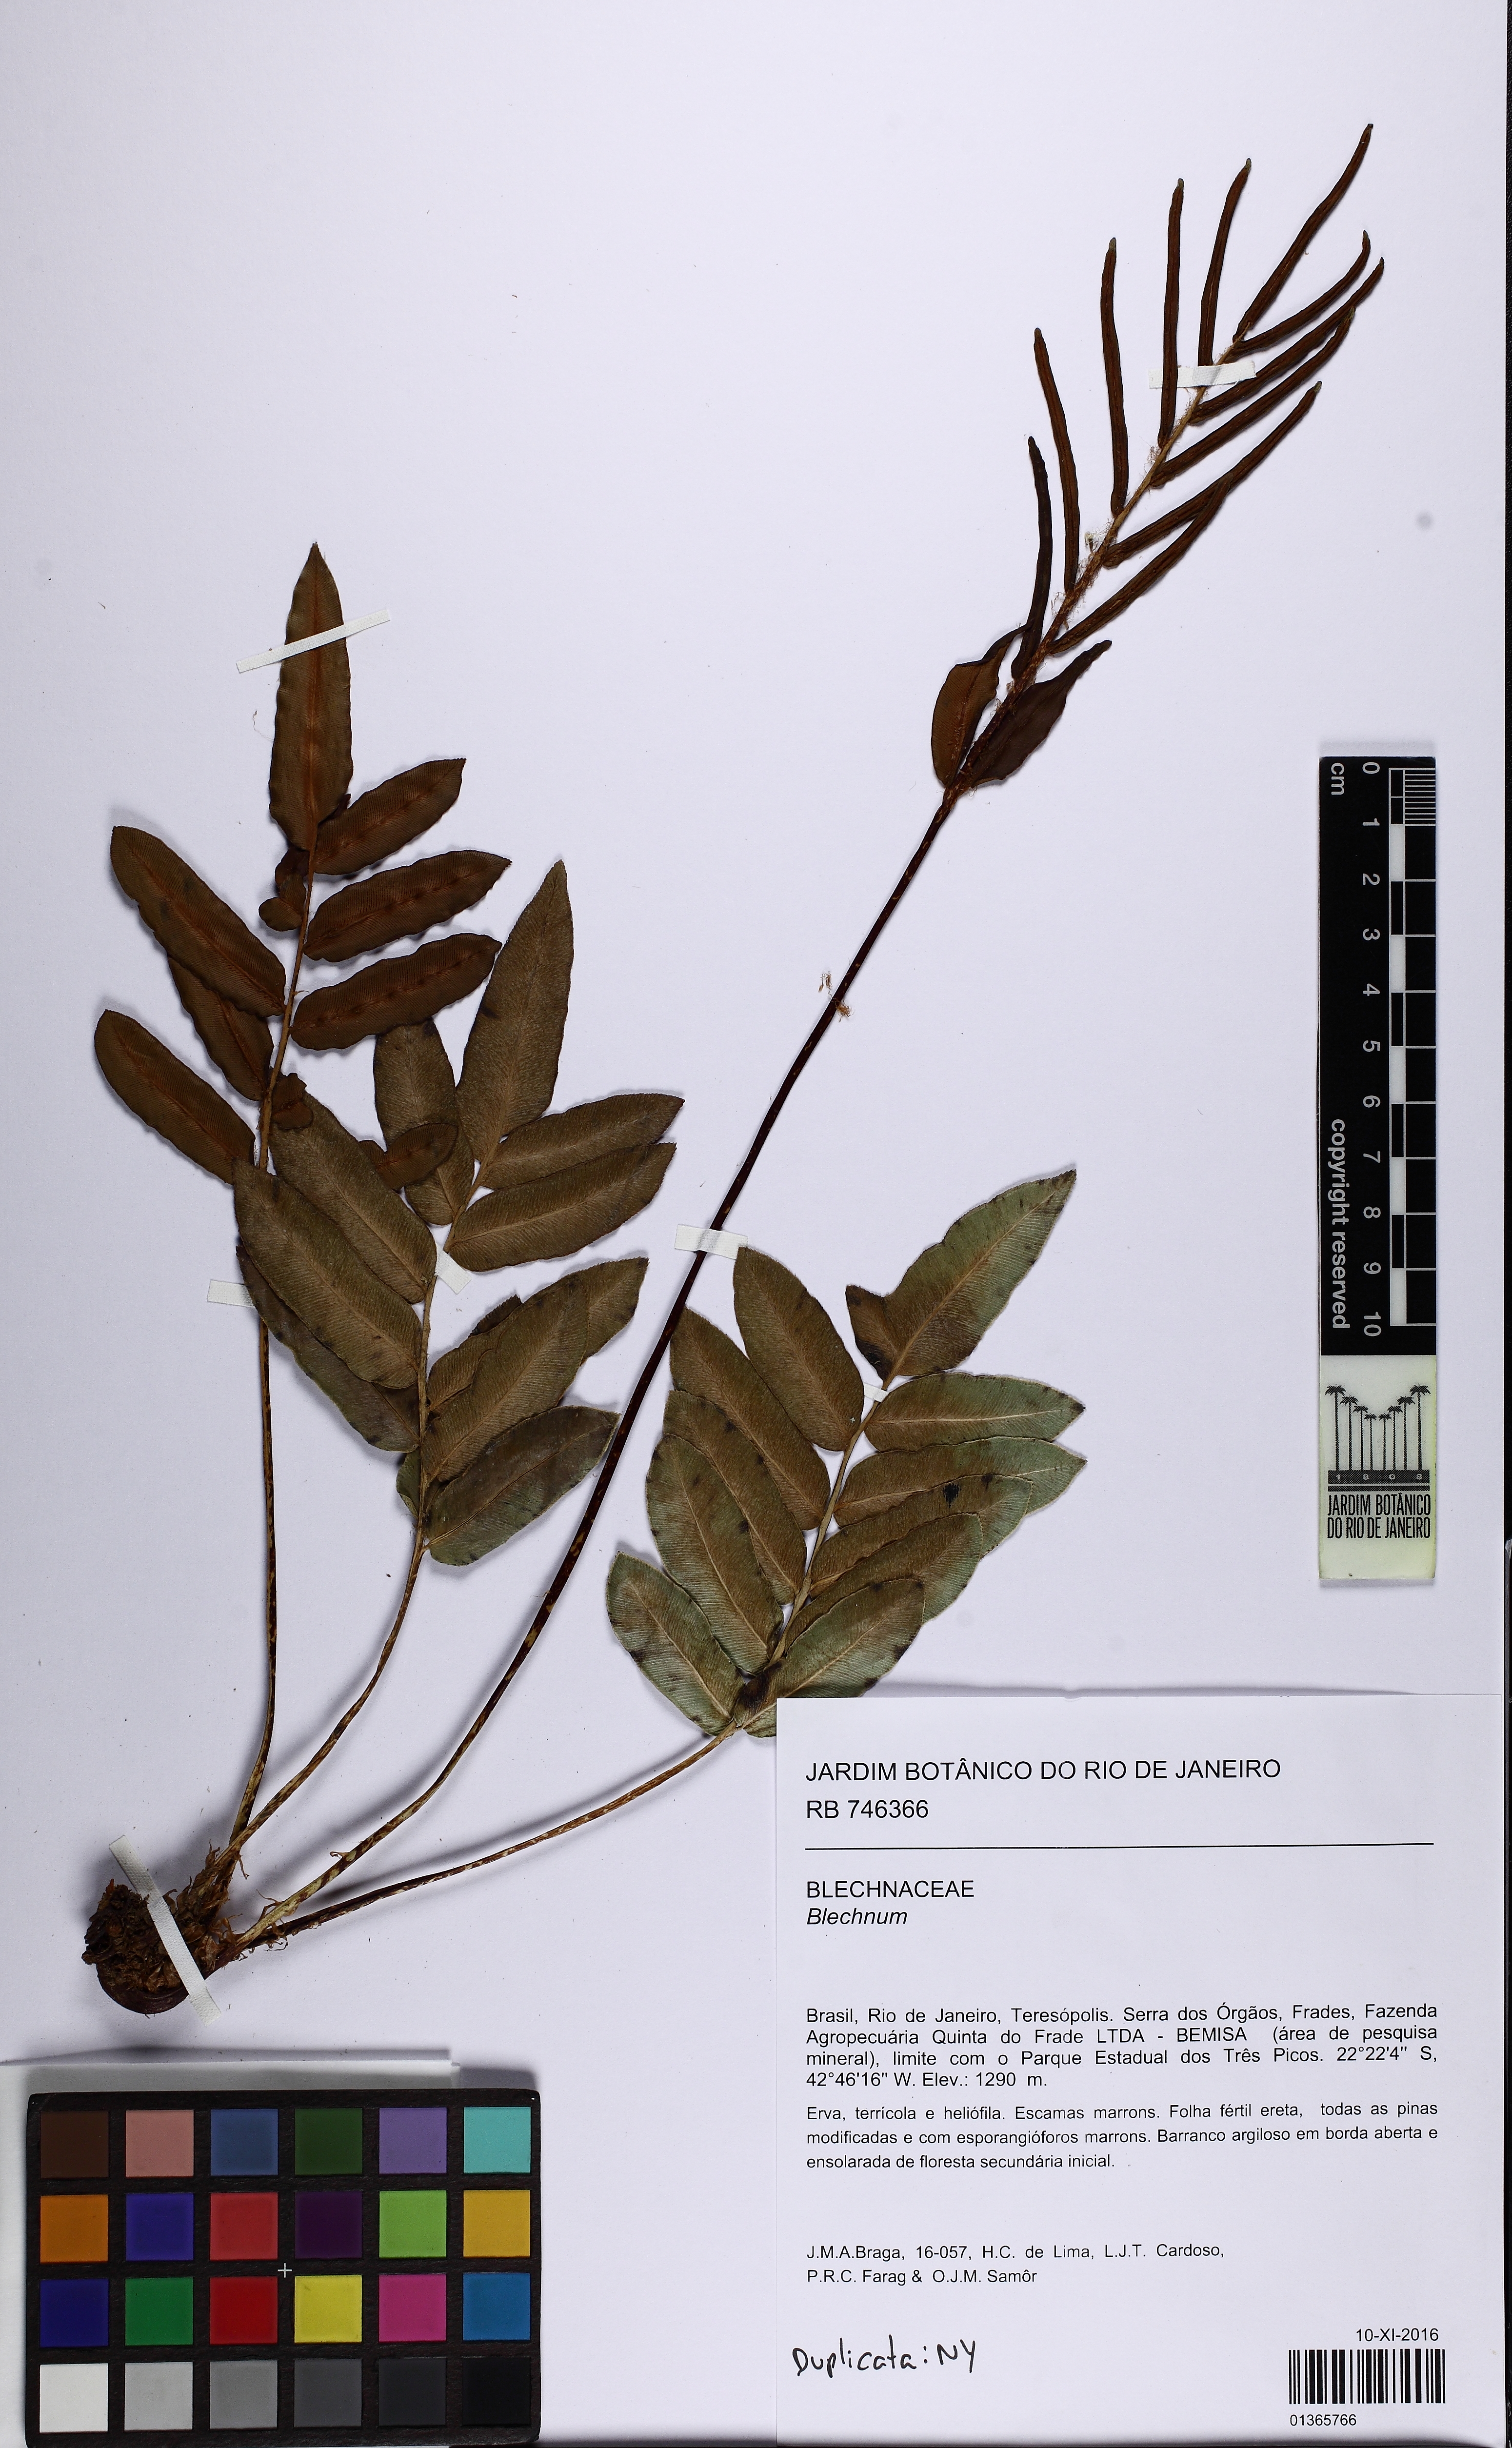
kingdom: Plantae
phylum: Tracheophyta
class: Polypodiopsida
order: Polypodiales
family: Blechnaceae
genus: Parablechnum
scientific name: Parablechnum cordatum
